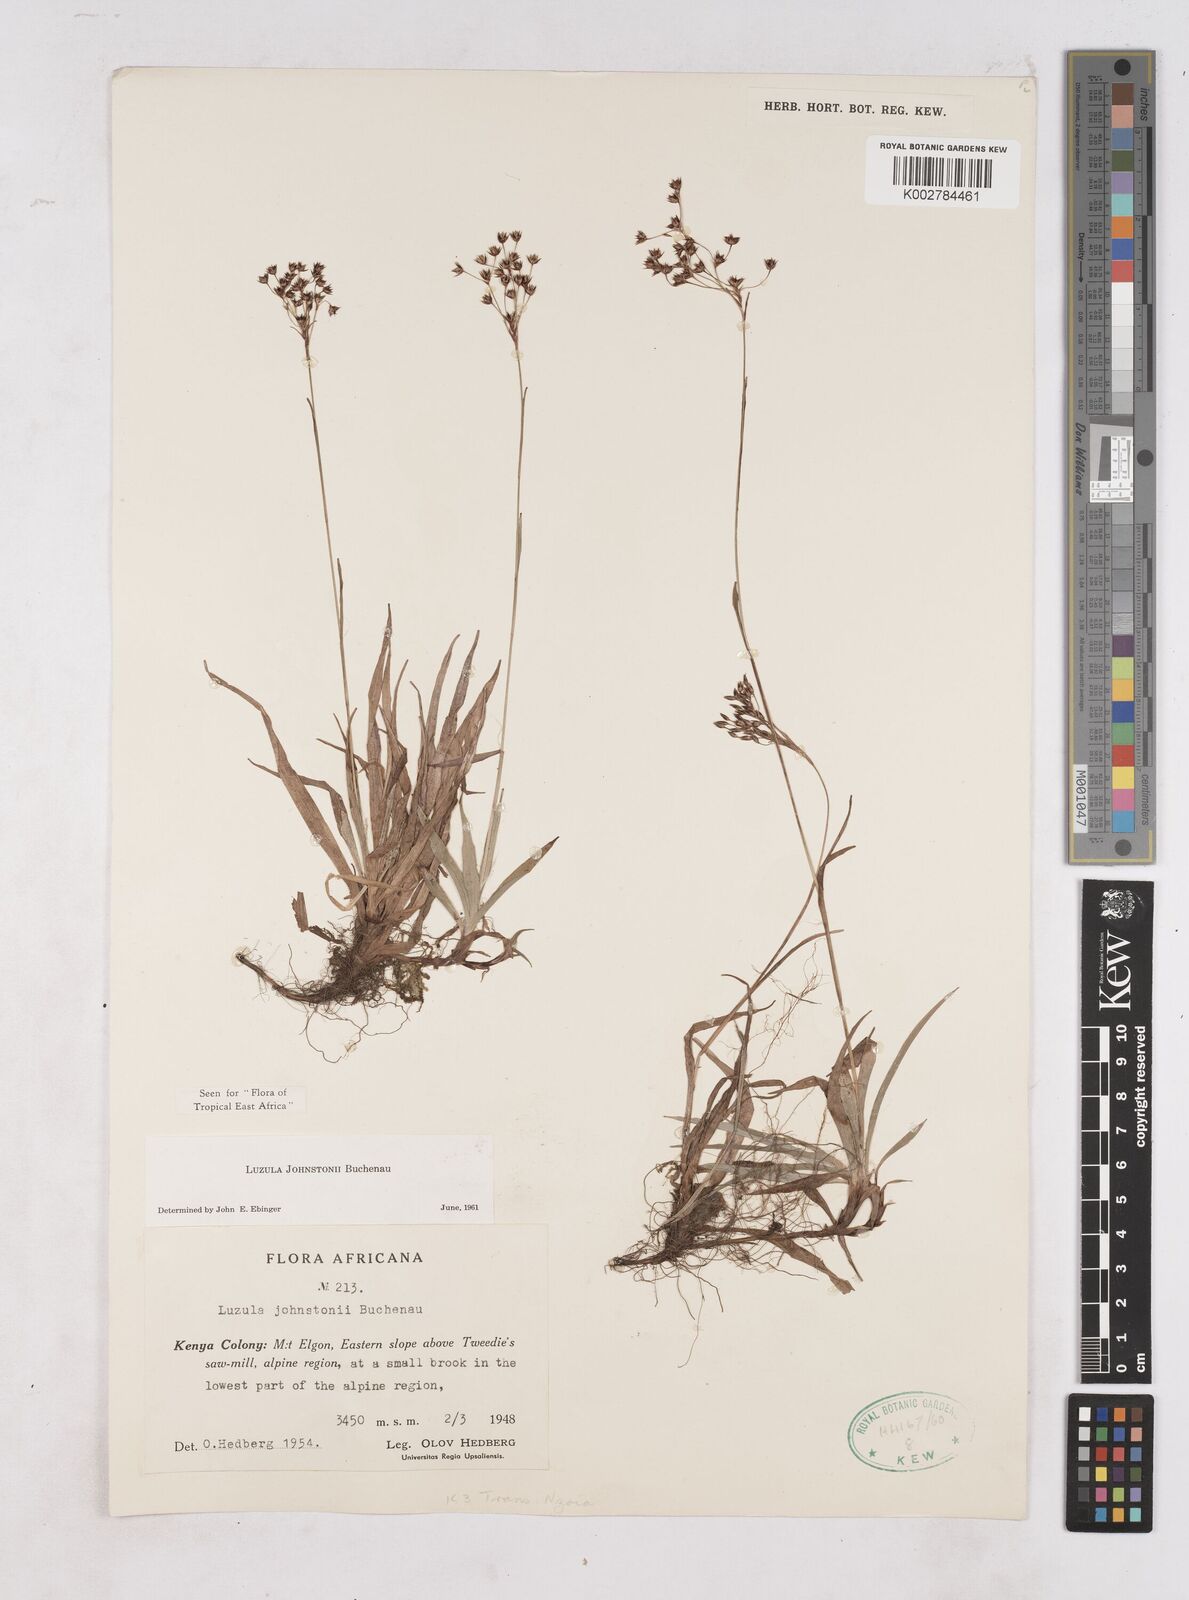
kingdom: Plantae
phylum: Tracheophyta
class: Liliopsida
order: Poales
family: Juncaceae
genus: Luzula
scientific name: Luzula johnstonii
